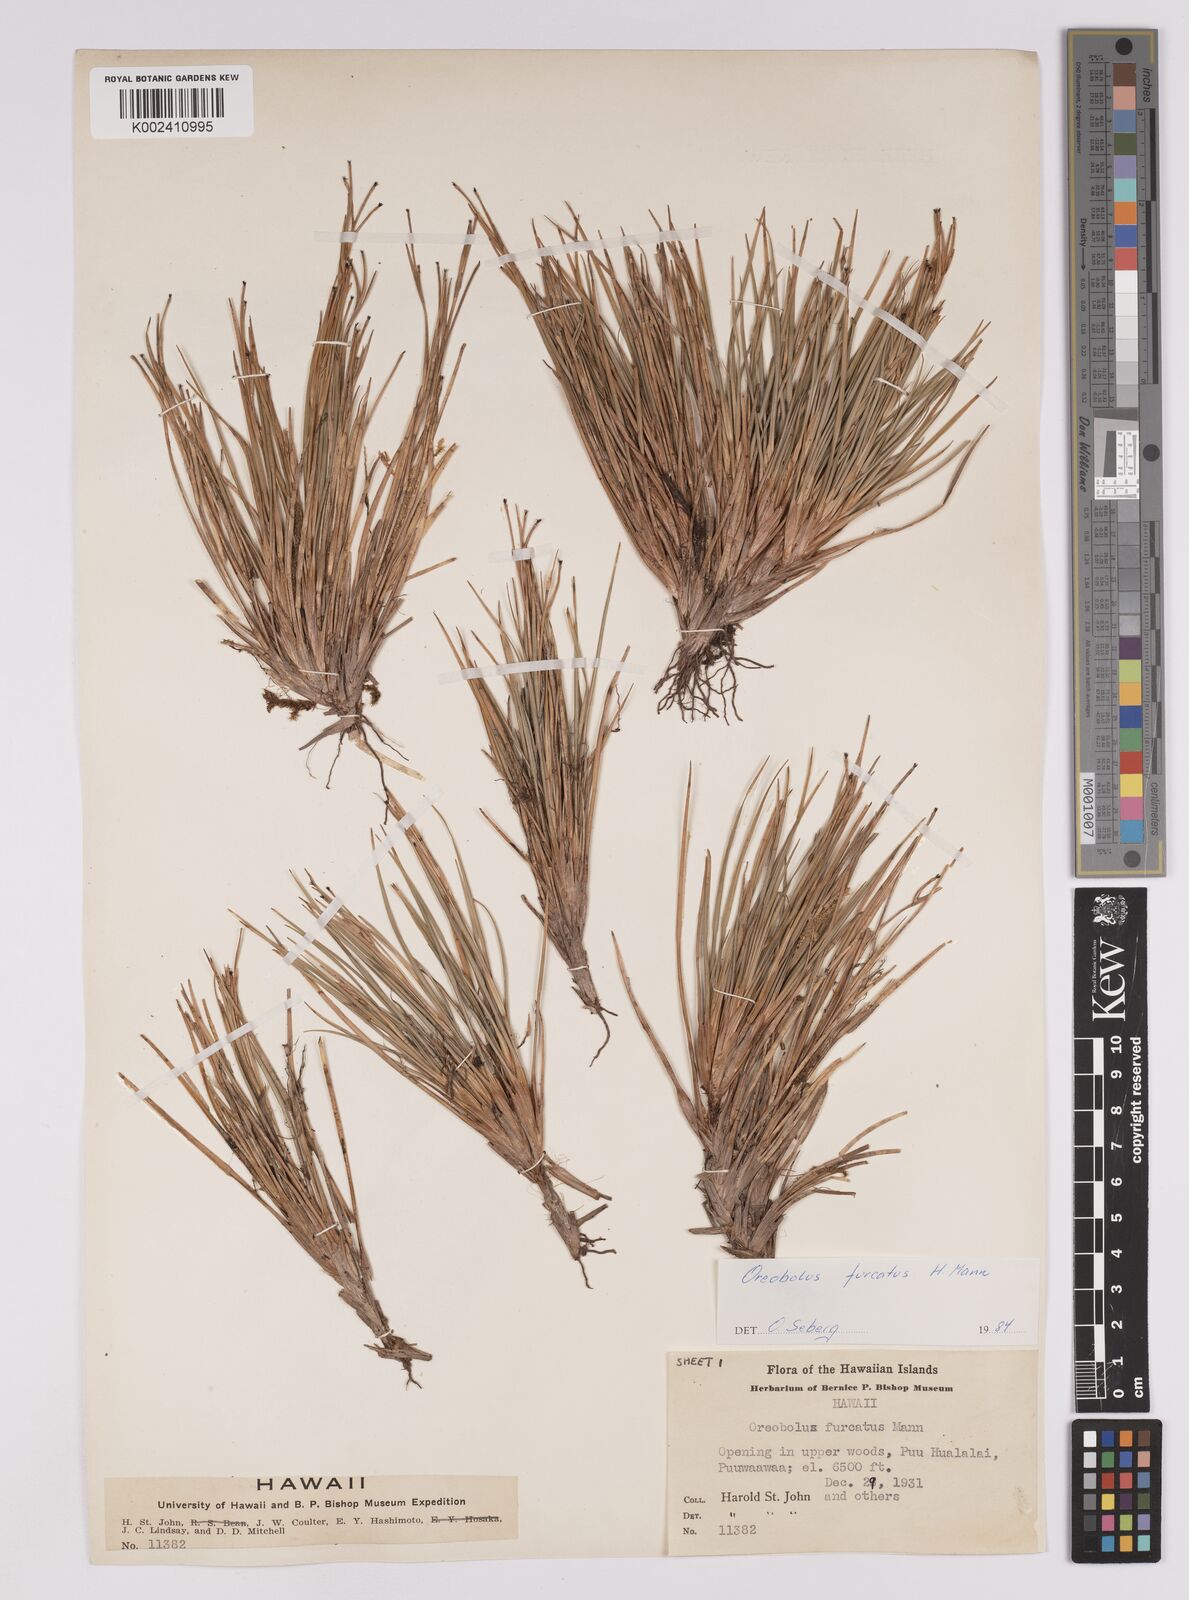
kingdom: Plantae
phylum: Tracheophyta
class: Liliopsida
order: Poales
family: Cyperaceae
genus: Oreobolus
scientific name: Oreobolus furcatus
